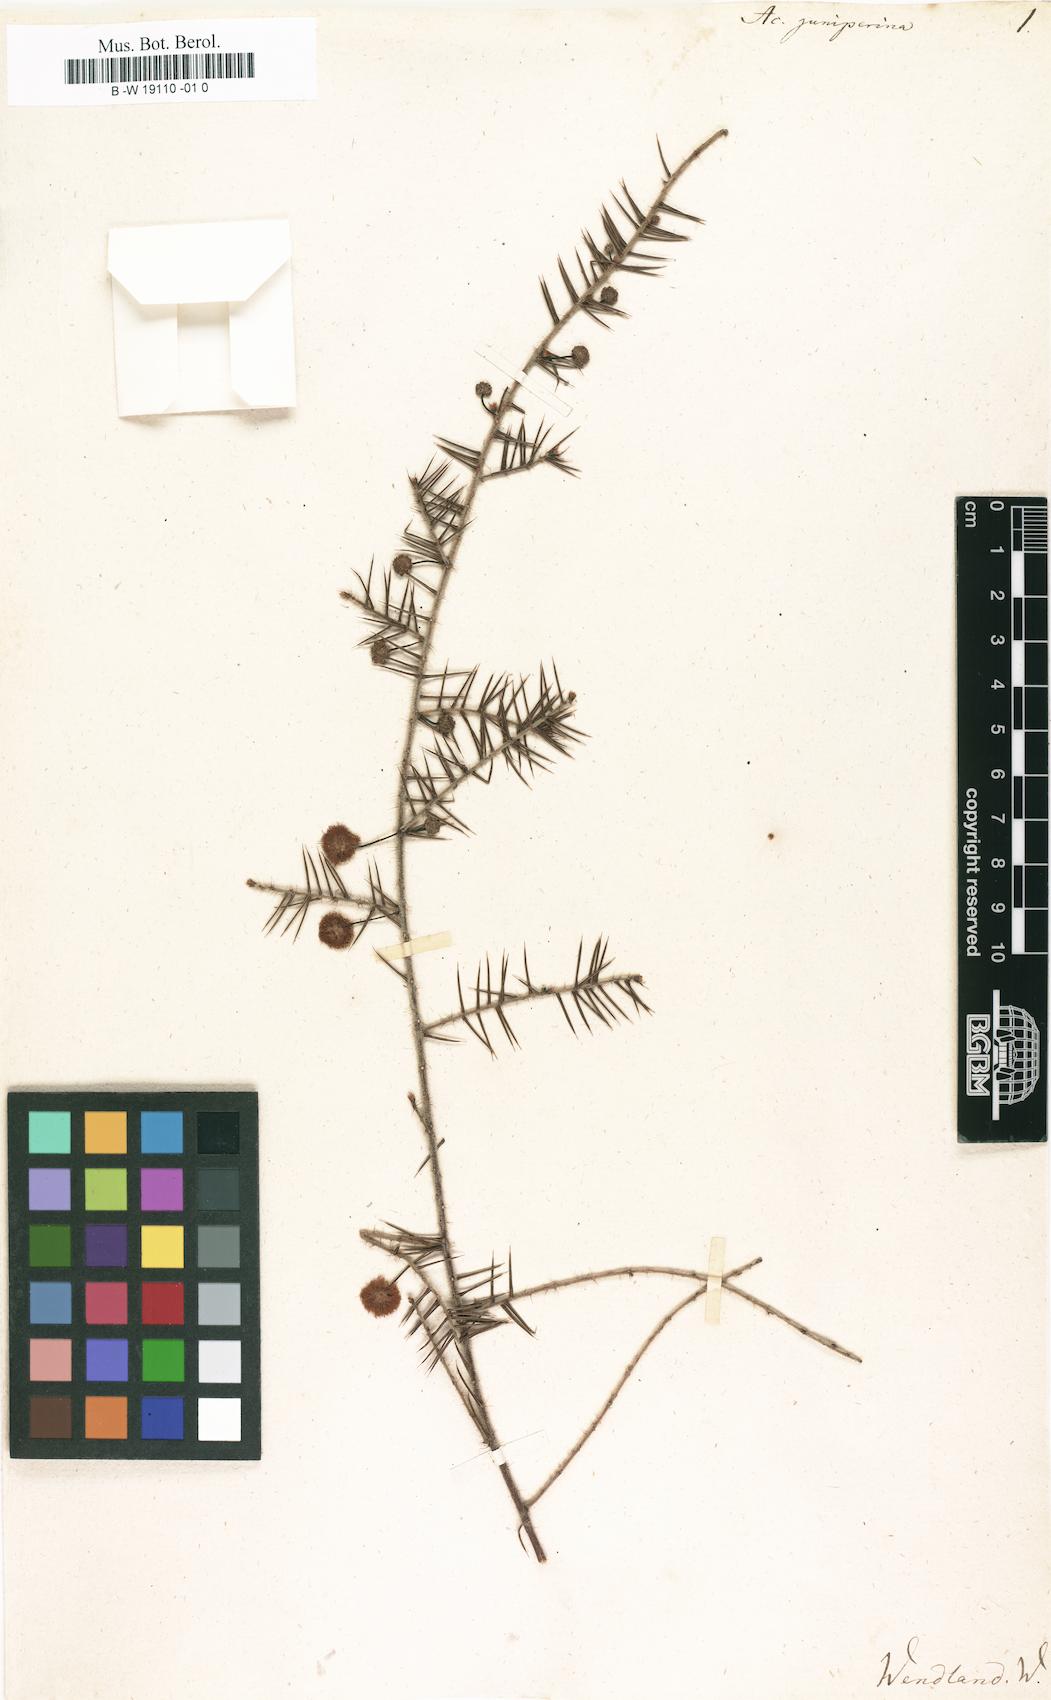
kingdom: Plantae
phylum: Tracheophyta
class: Magnoliopsida
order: Fabales
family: Fabaceae
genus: Acacia
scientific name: Acacia ulicifolia
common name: Juniper wattle
